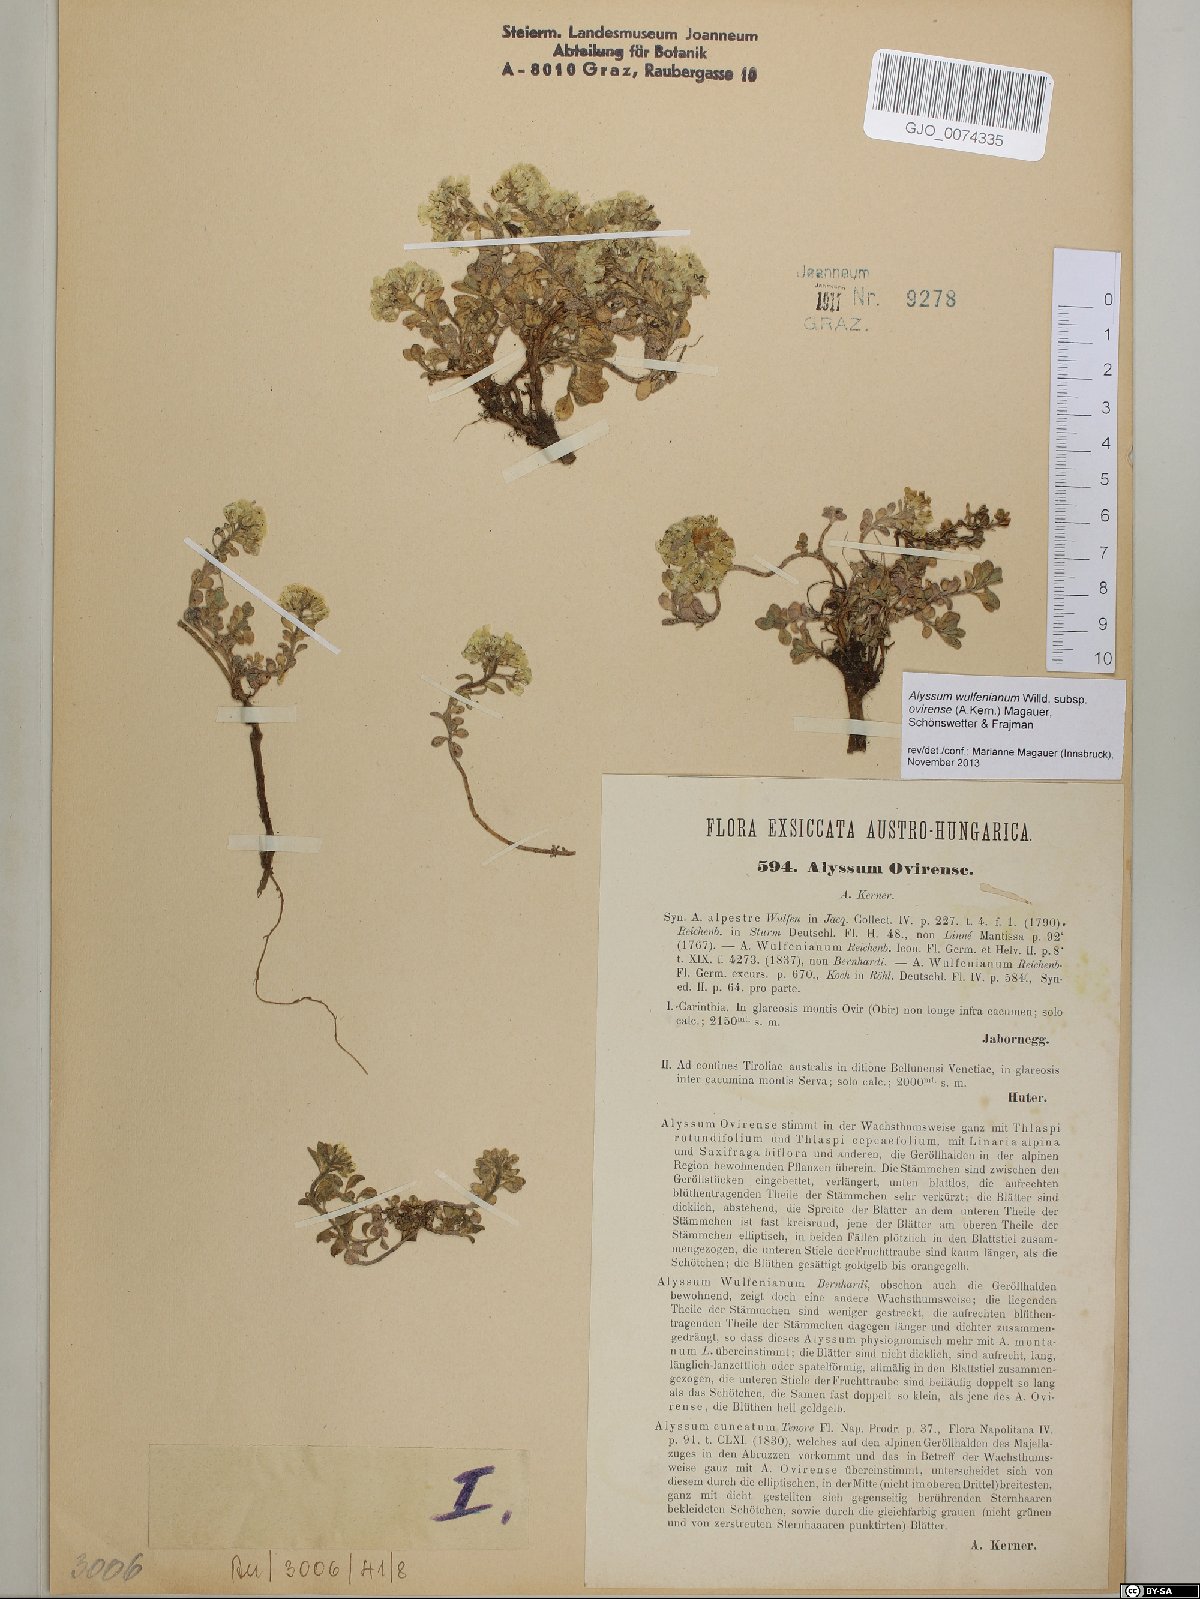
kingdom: Plantae
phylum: Tracheophyta
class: Magnoliopsida
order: Brassicales
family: Brassicaceae
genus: Alyssum
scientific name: Alyssum wulfenianum
